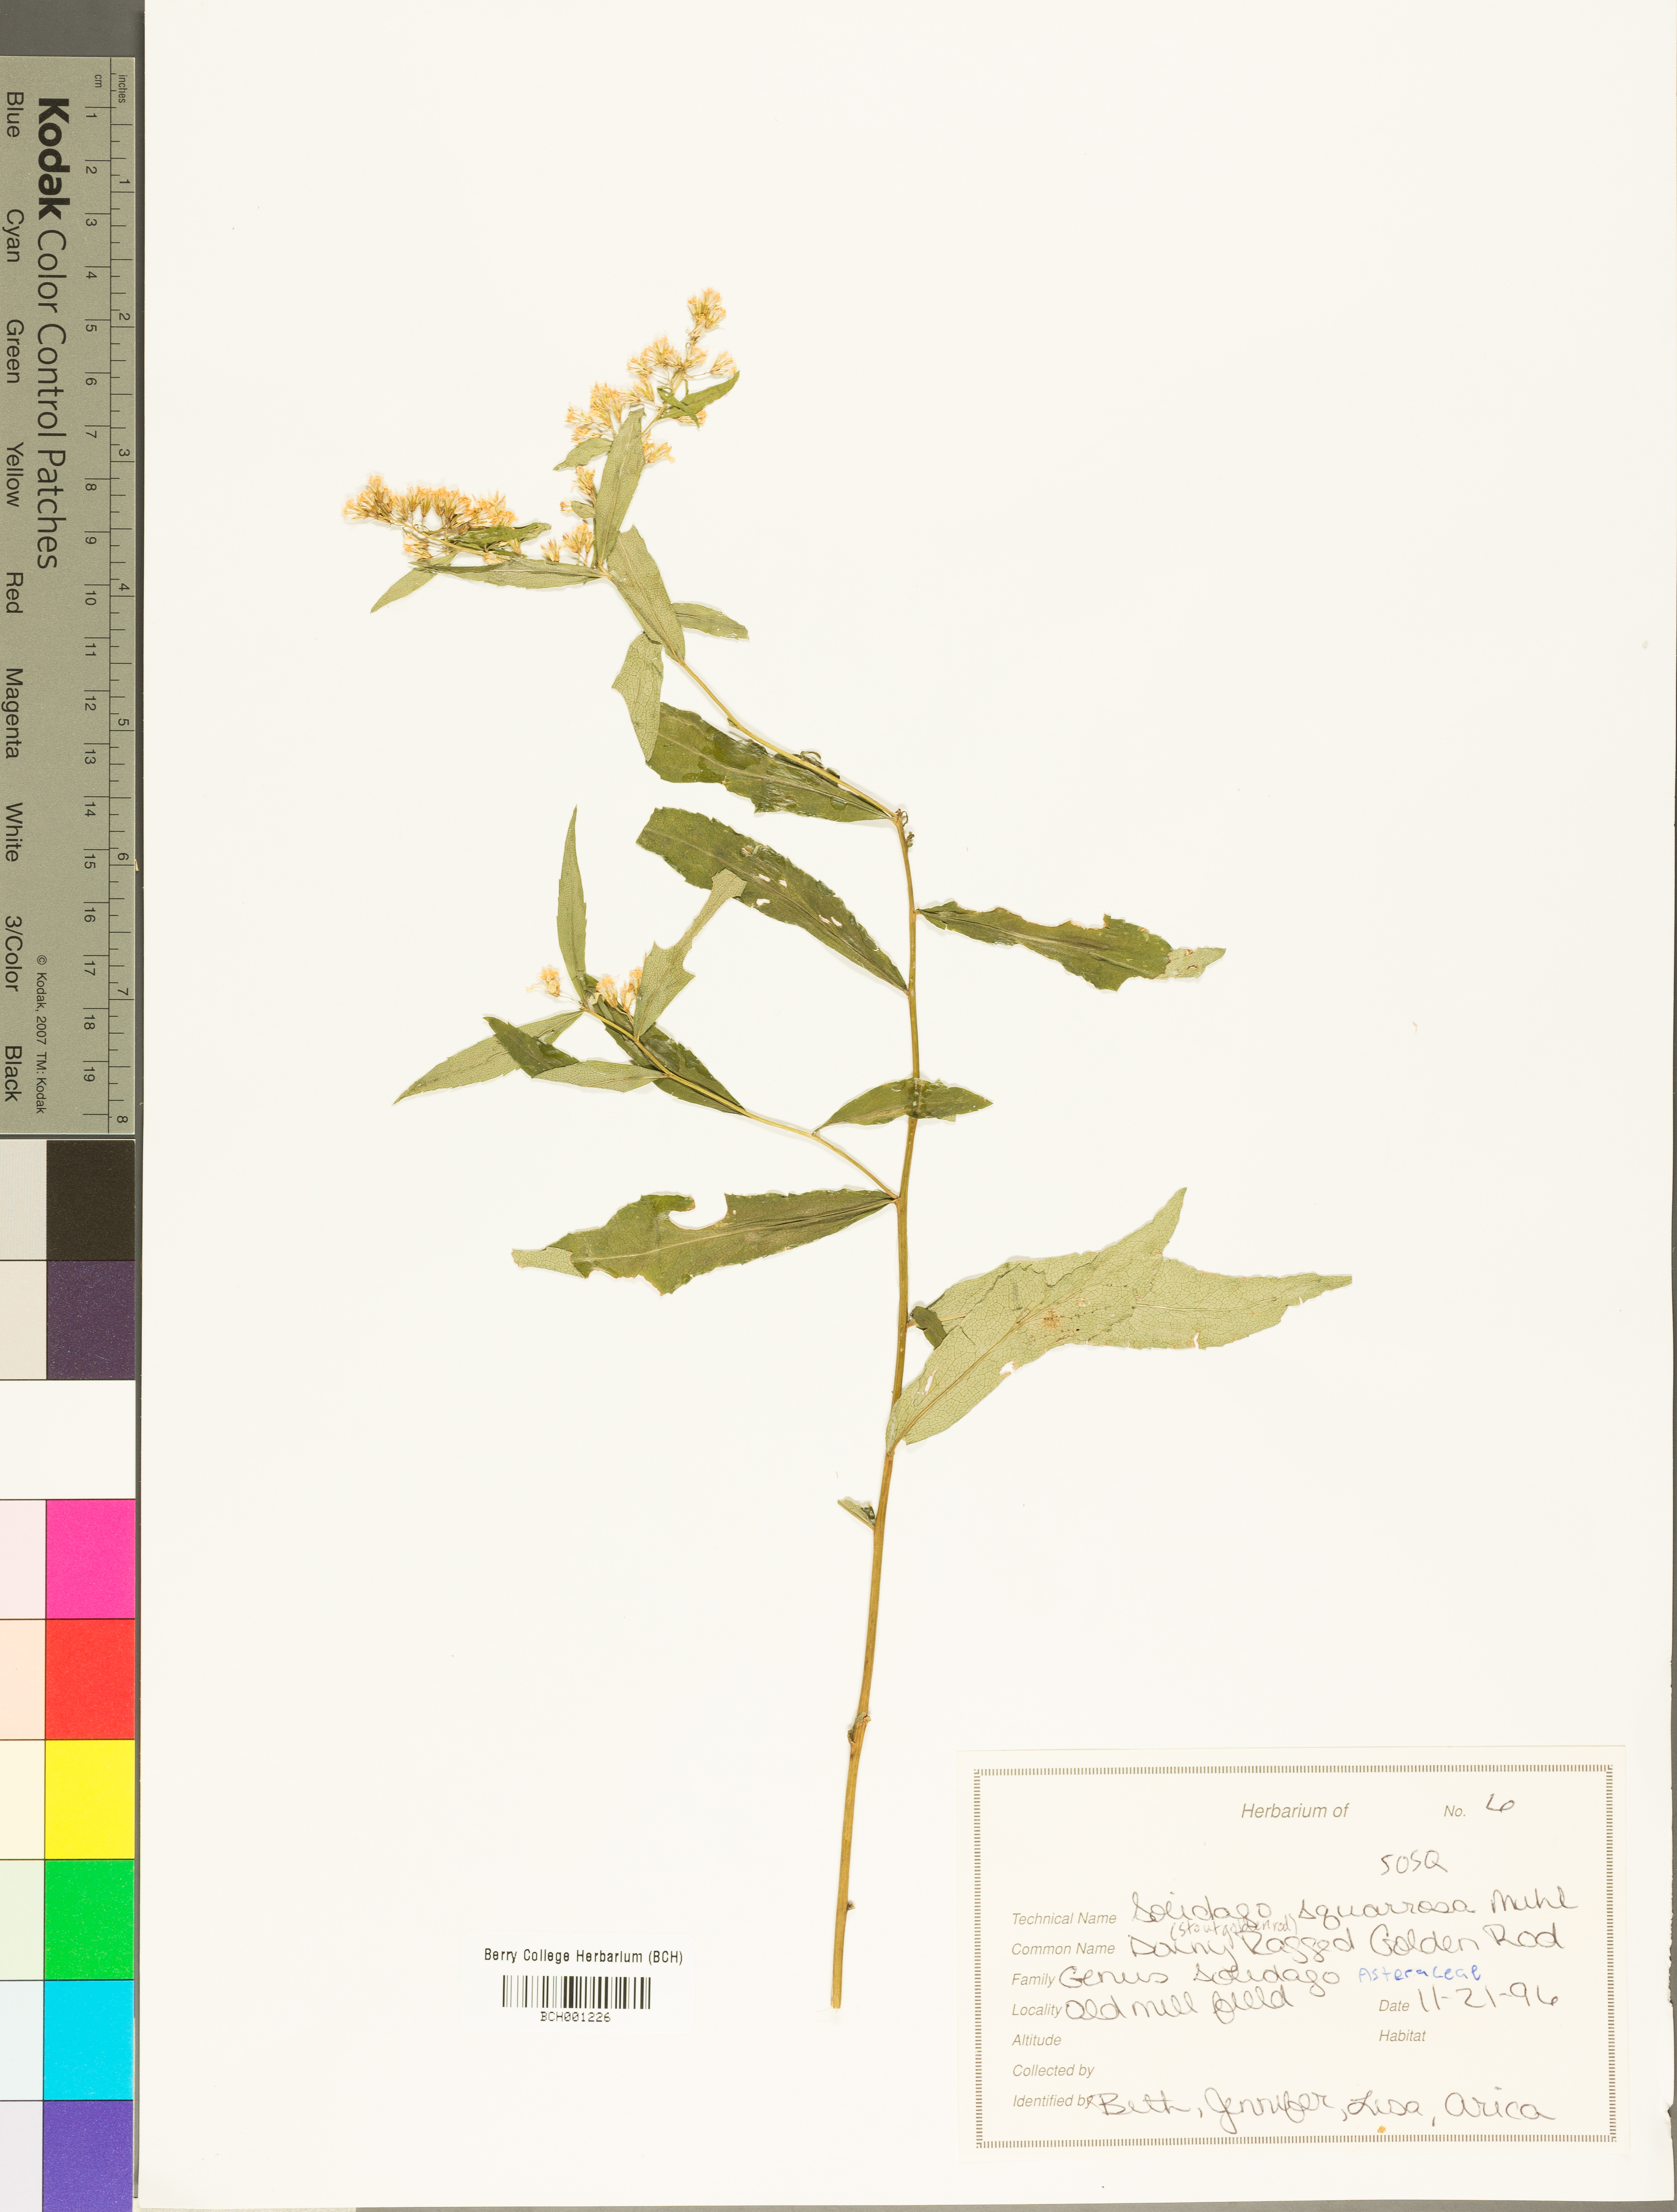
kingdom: Plantae
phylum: Tracheophyta
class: Magnoliopsida
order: Asterales
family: Asteraceae
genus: Solidago
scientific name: Solidago squarrosa
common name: Stout goldenrod
